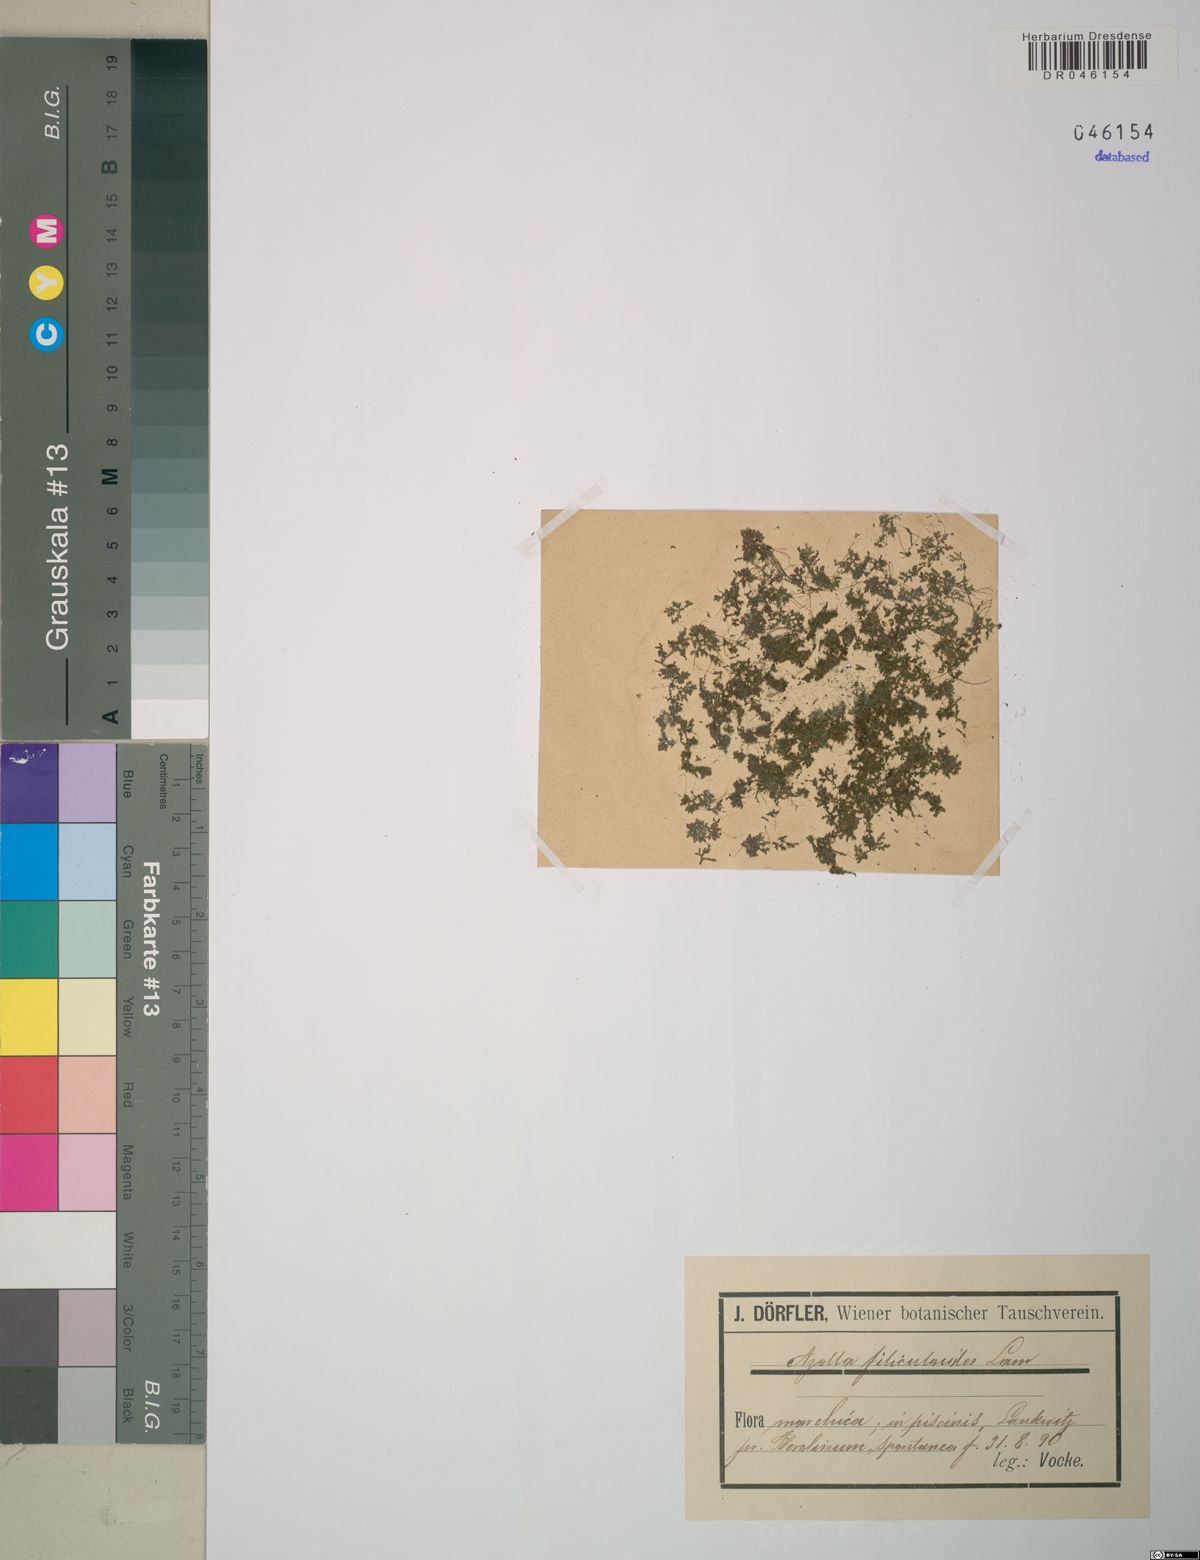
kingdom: Plantae
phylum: Tracheophyta
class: Polypodiopsida
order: Salviniales
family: Salviniaceae
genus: Azolla
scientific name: Azolla filiculoides
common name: Water fern
